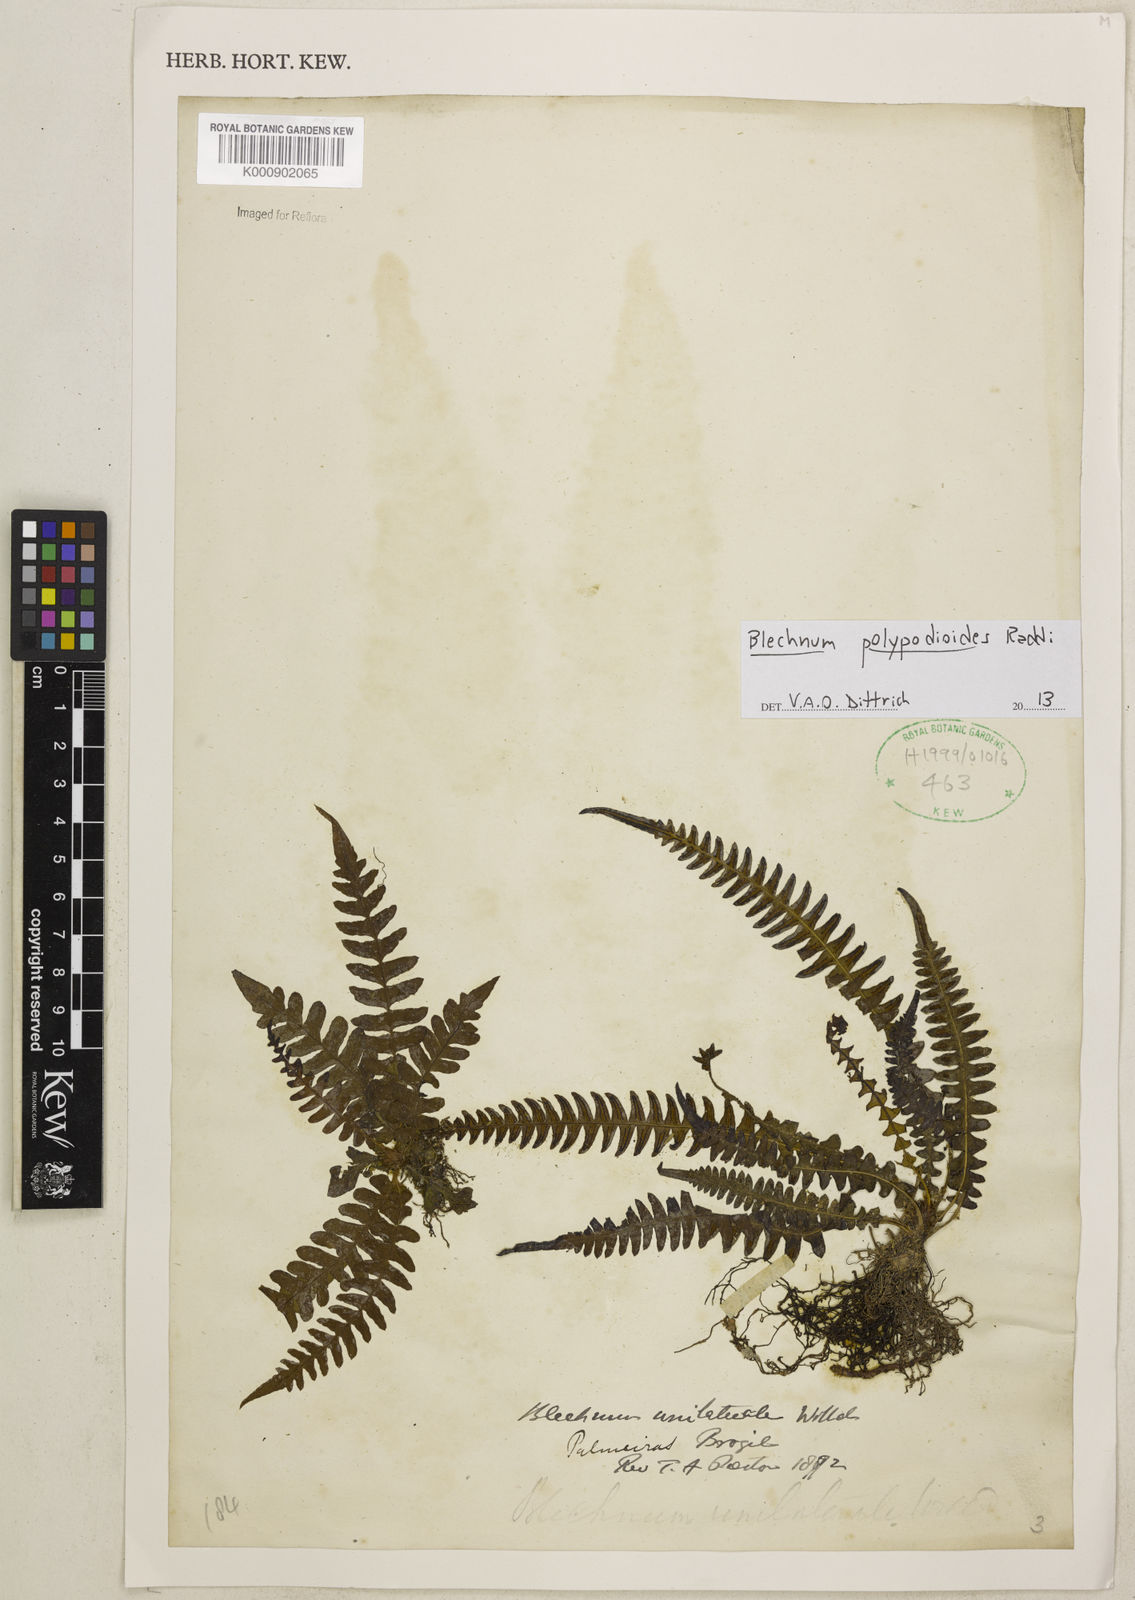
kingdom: Plantae
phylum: Tracheophyta
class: Polypodiopsida
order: Polypodiales
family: Blechnaceae
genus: Blechnum
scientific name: Blechnum polypodioides
